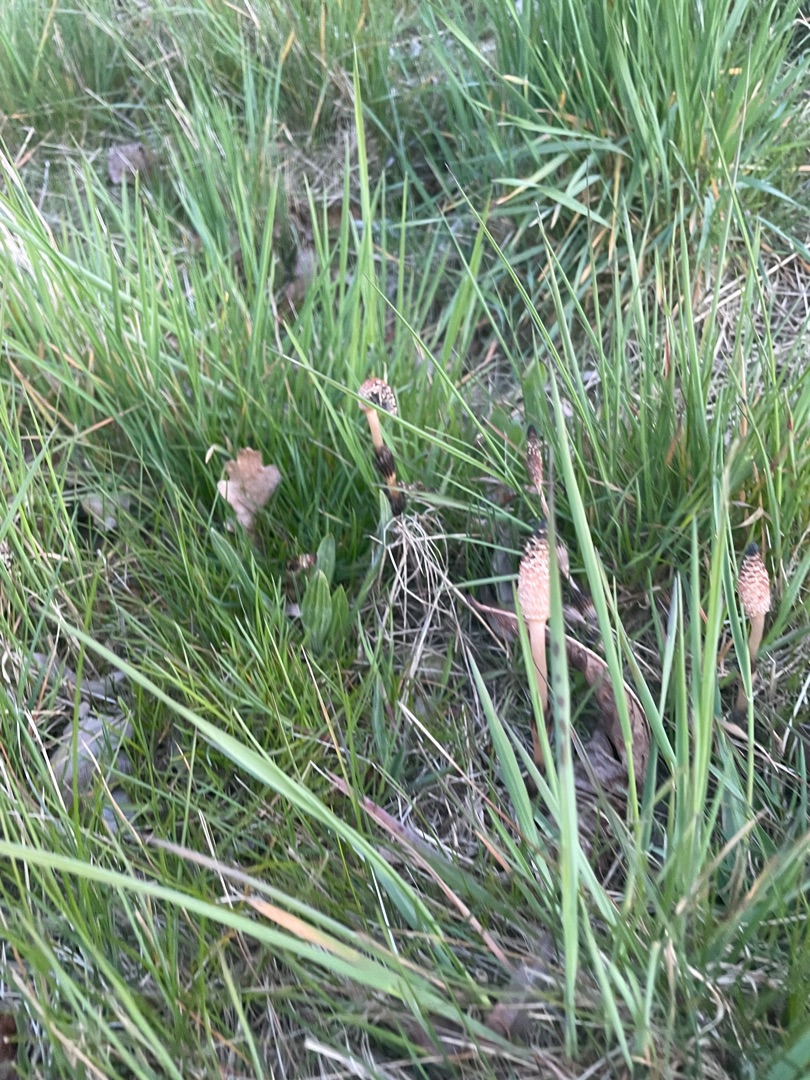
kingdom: Plantae
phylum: Tracheophyta
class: Polypodiopsida
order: Equisetales
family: Equisetaceae
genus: Equisetum
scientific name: Equisetum arvense
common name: Ager-padderok
